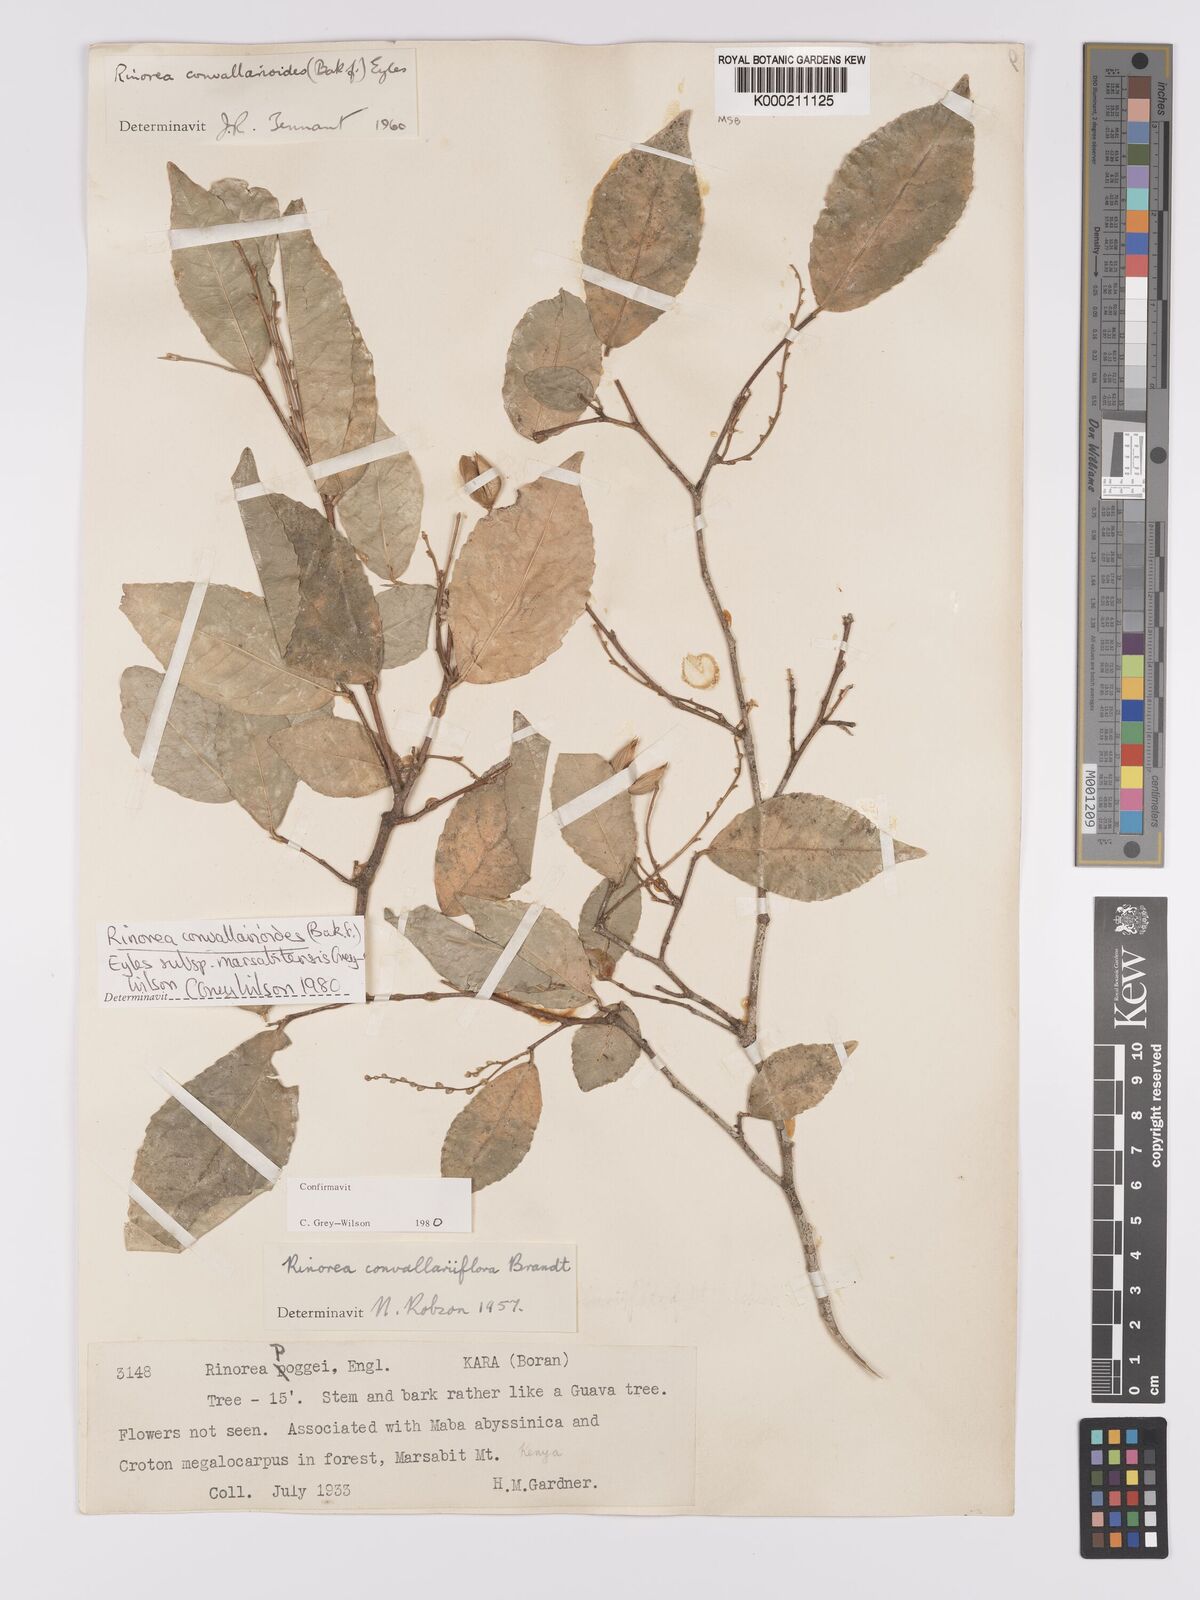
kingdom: Plantae
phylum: Tracheophyta
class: Magnoliopsida
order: Malpighiales
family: Violaceae
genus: Rinorea
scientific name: Rinorea convallarioides
